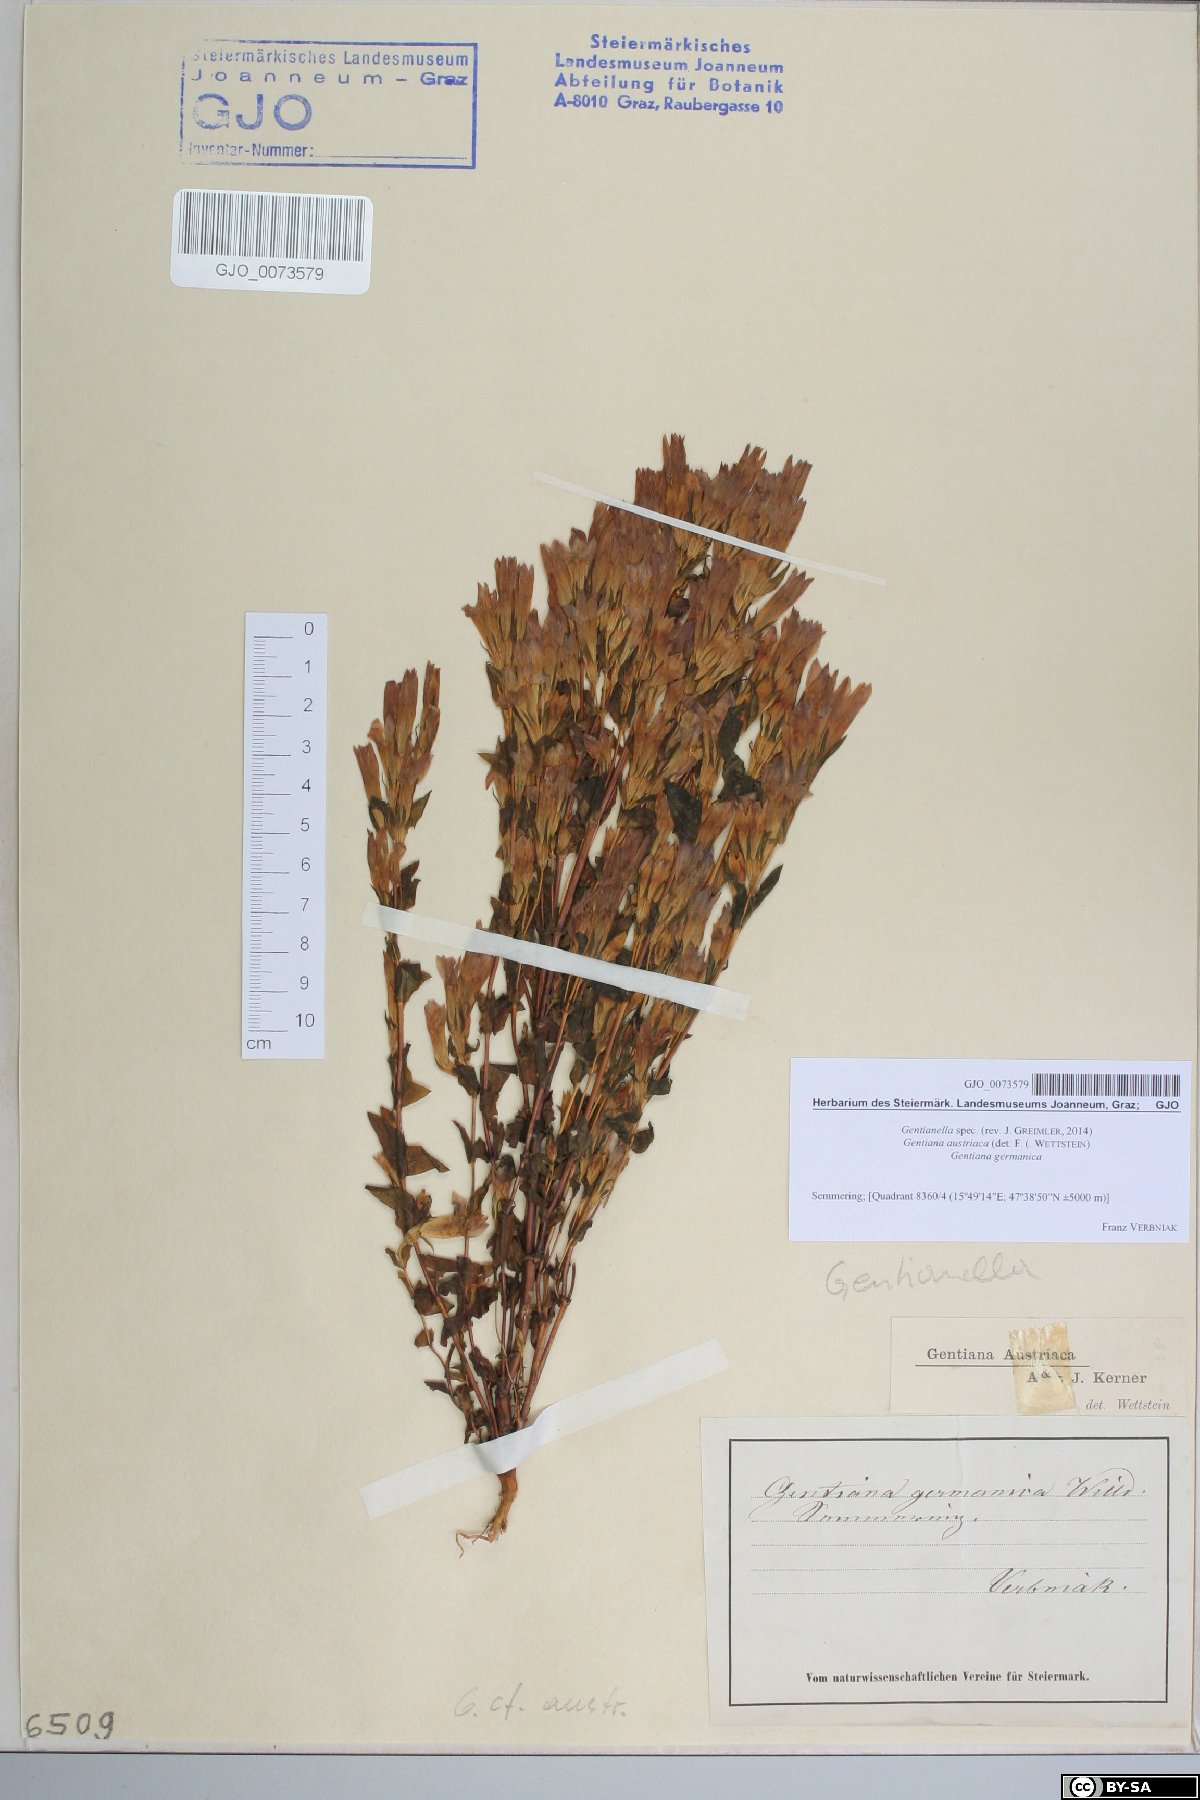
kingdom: Plantae
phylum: Tracheophyta
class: Magnoliopsida
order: Gentianales
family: Gentianaceae
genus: Gentianella
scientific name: Gentianella
